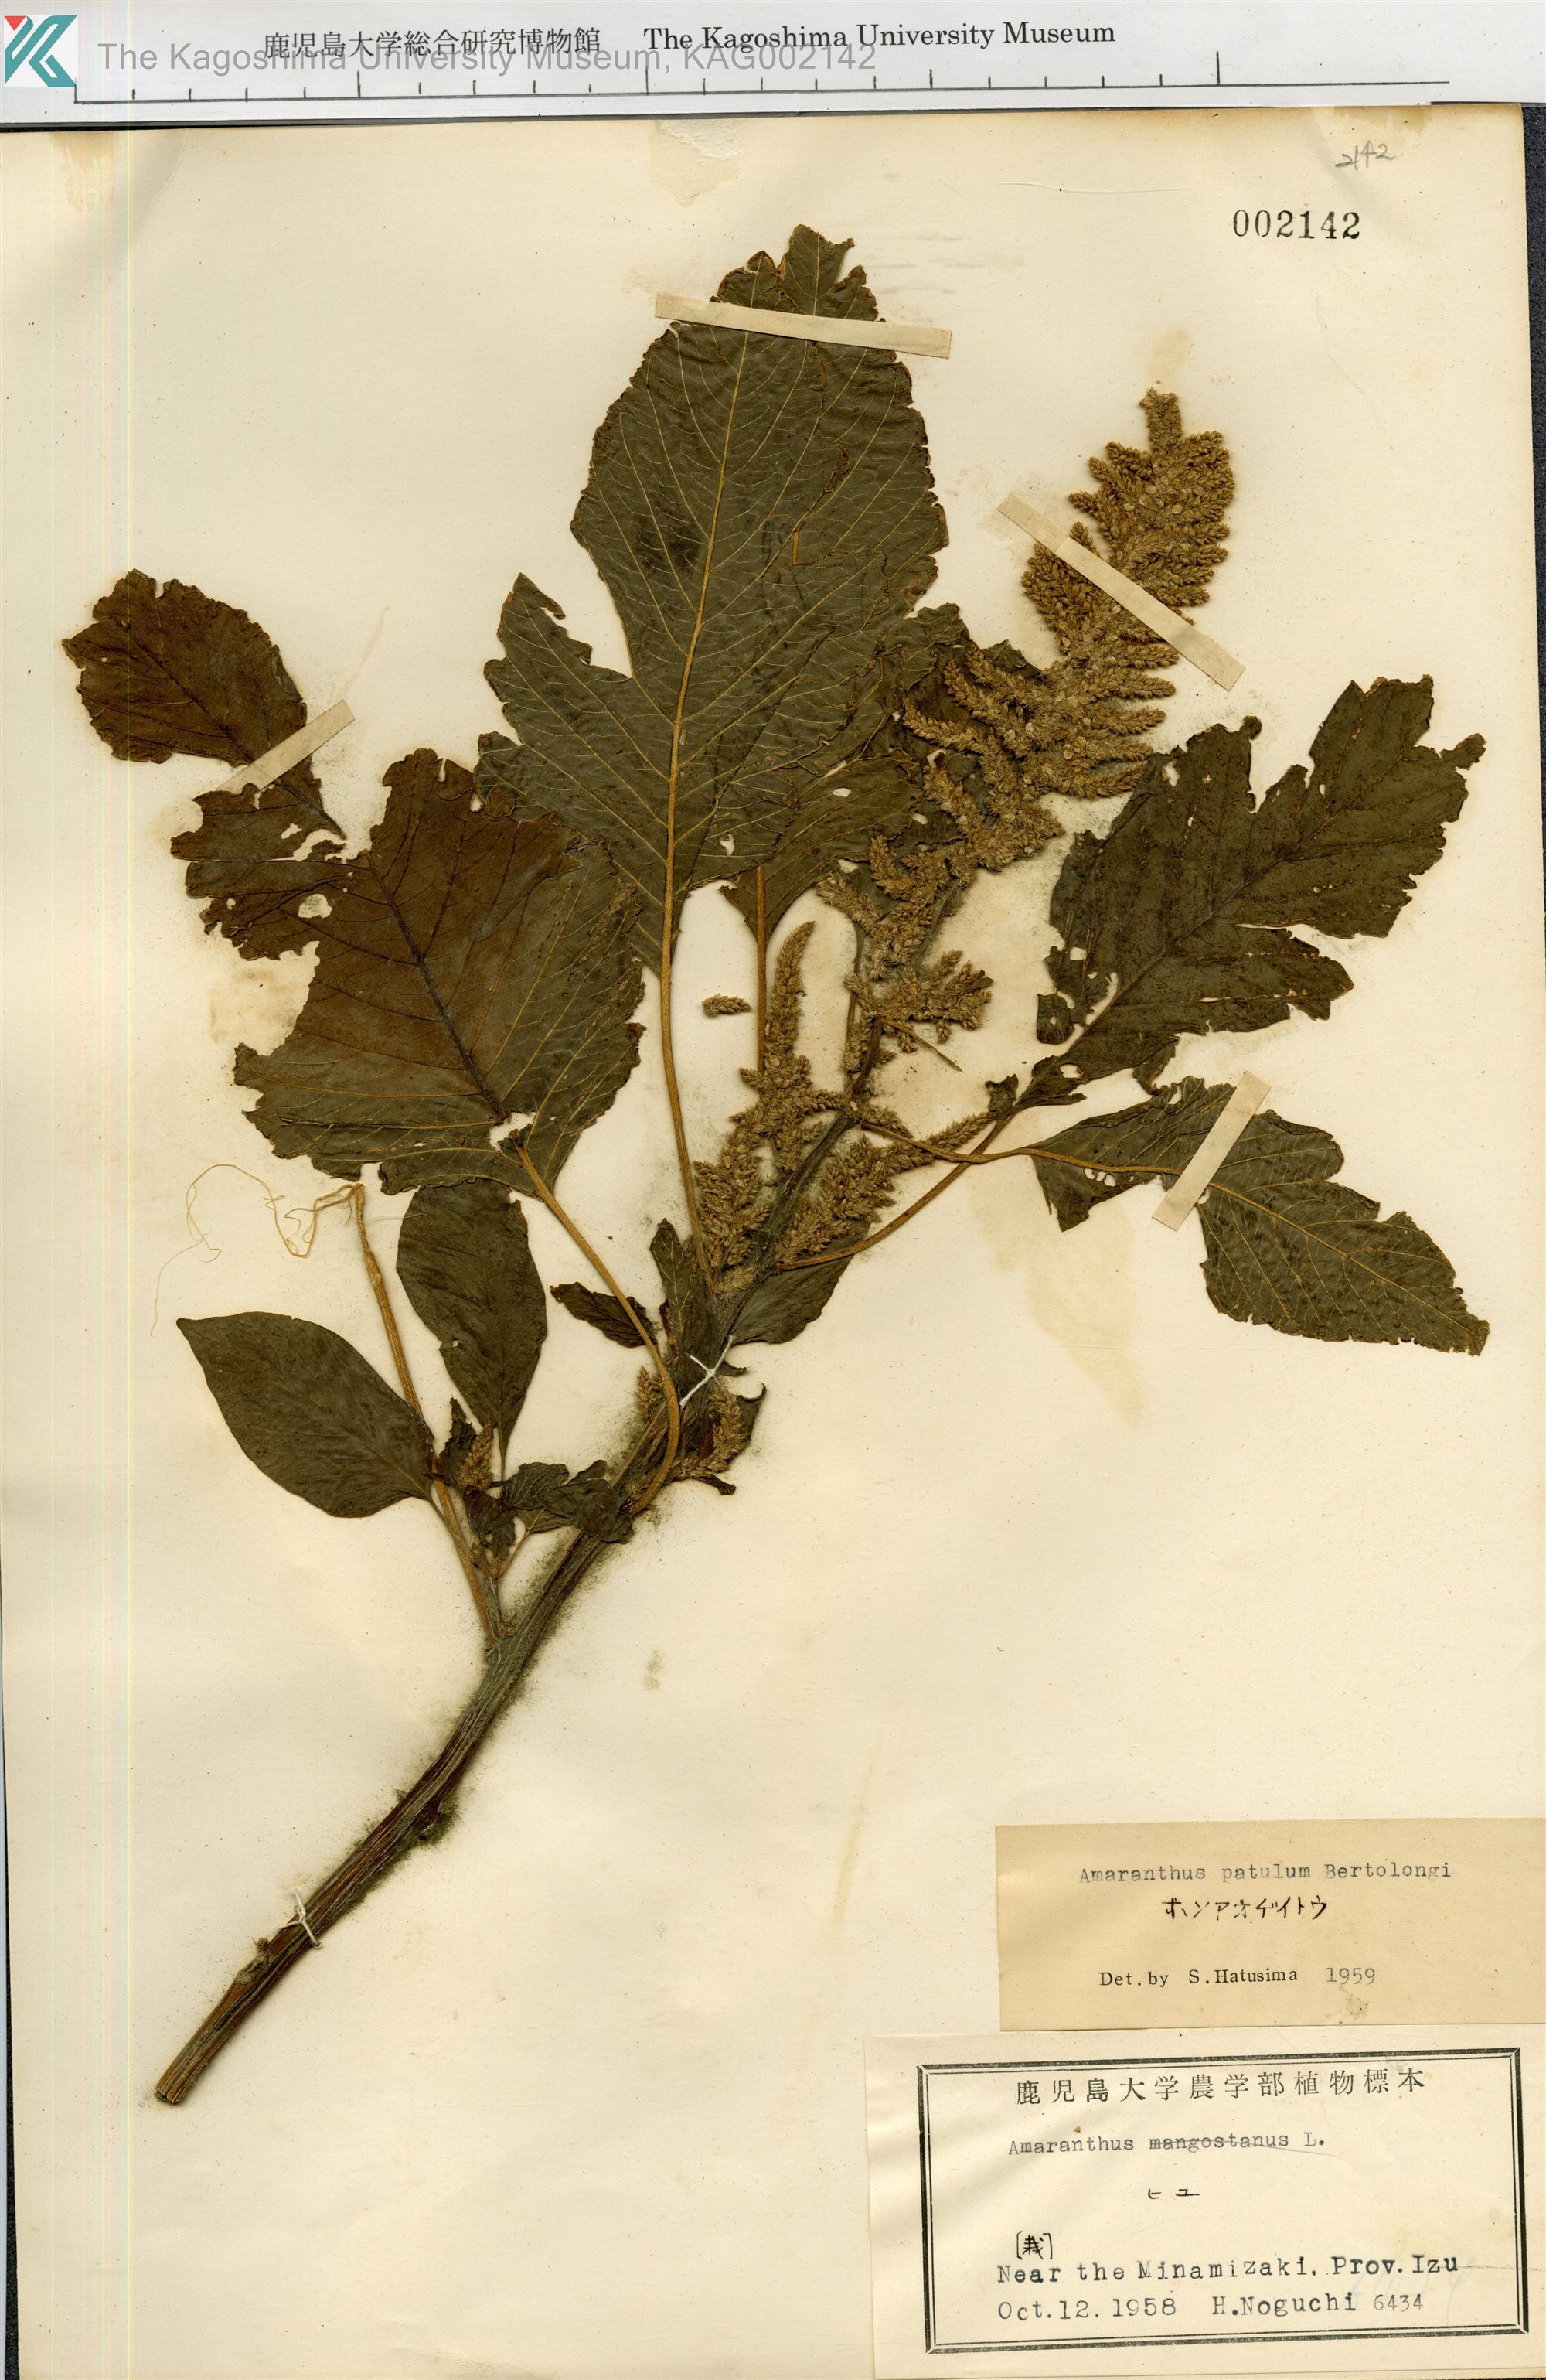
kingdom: Plantae
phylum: Tracheophyta
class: Magnoliopsida
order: Caryophyllales
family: Amaranthaceae
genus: Amaranthus
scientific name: Amaranthus hybridus
